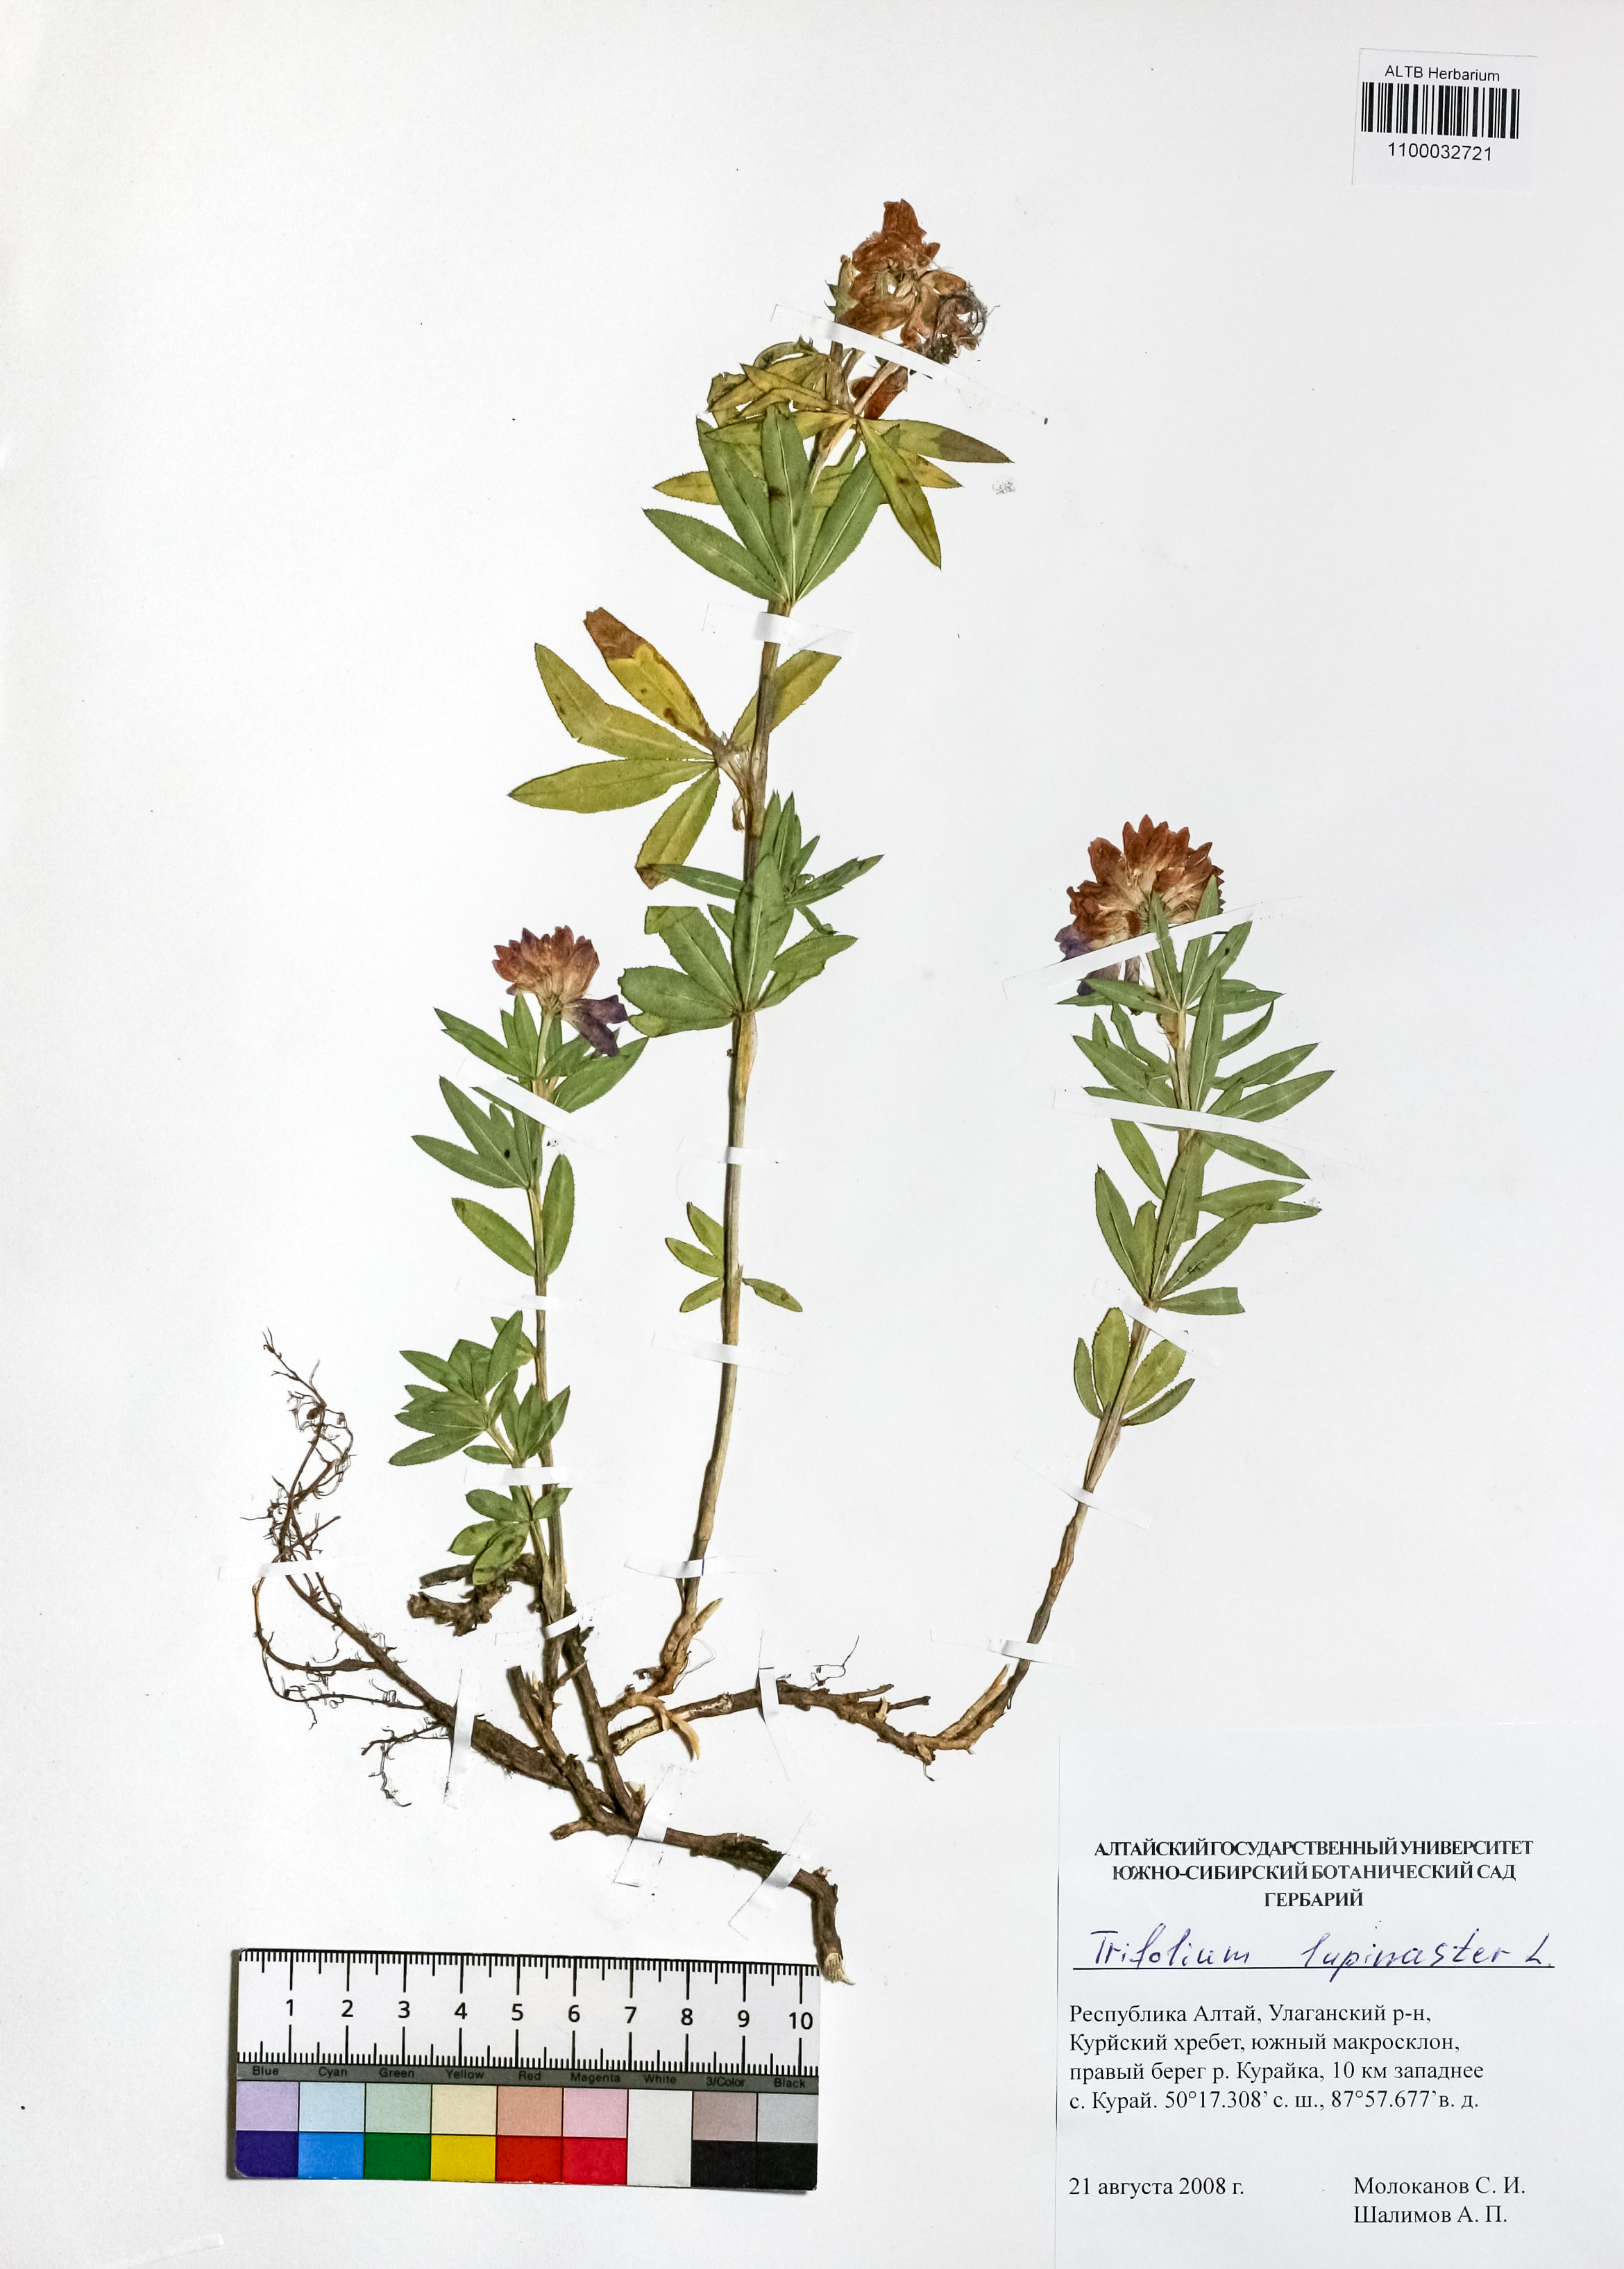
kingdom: Plantae
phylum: Tracheophyta
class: Magnoliopsida
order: Fabales
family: Fabaceae
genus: Trifolium
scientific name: Trifolium lupinaster
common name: Lupine clover
